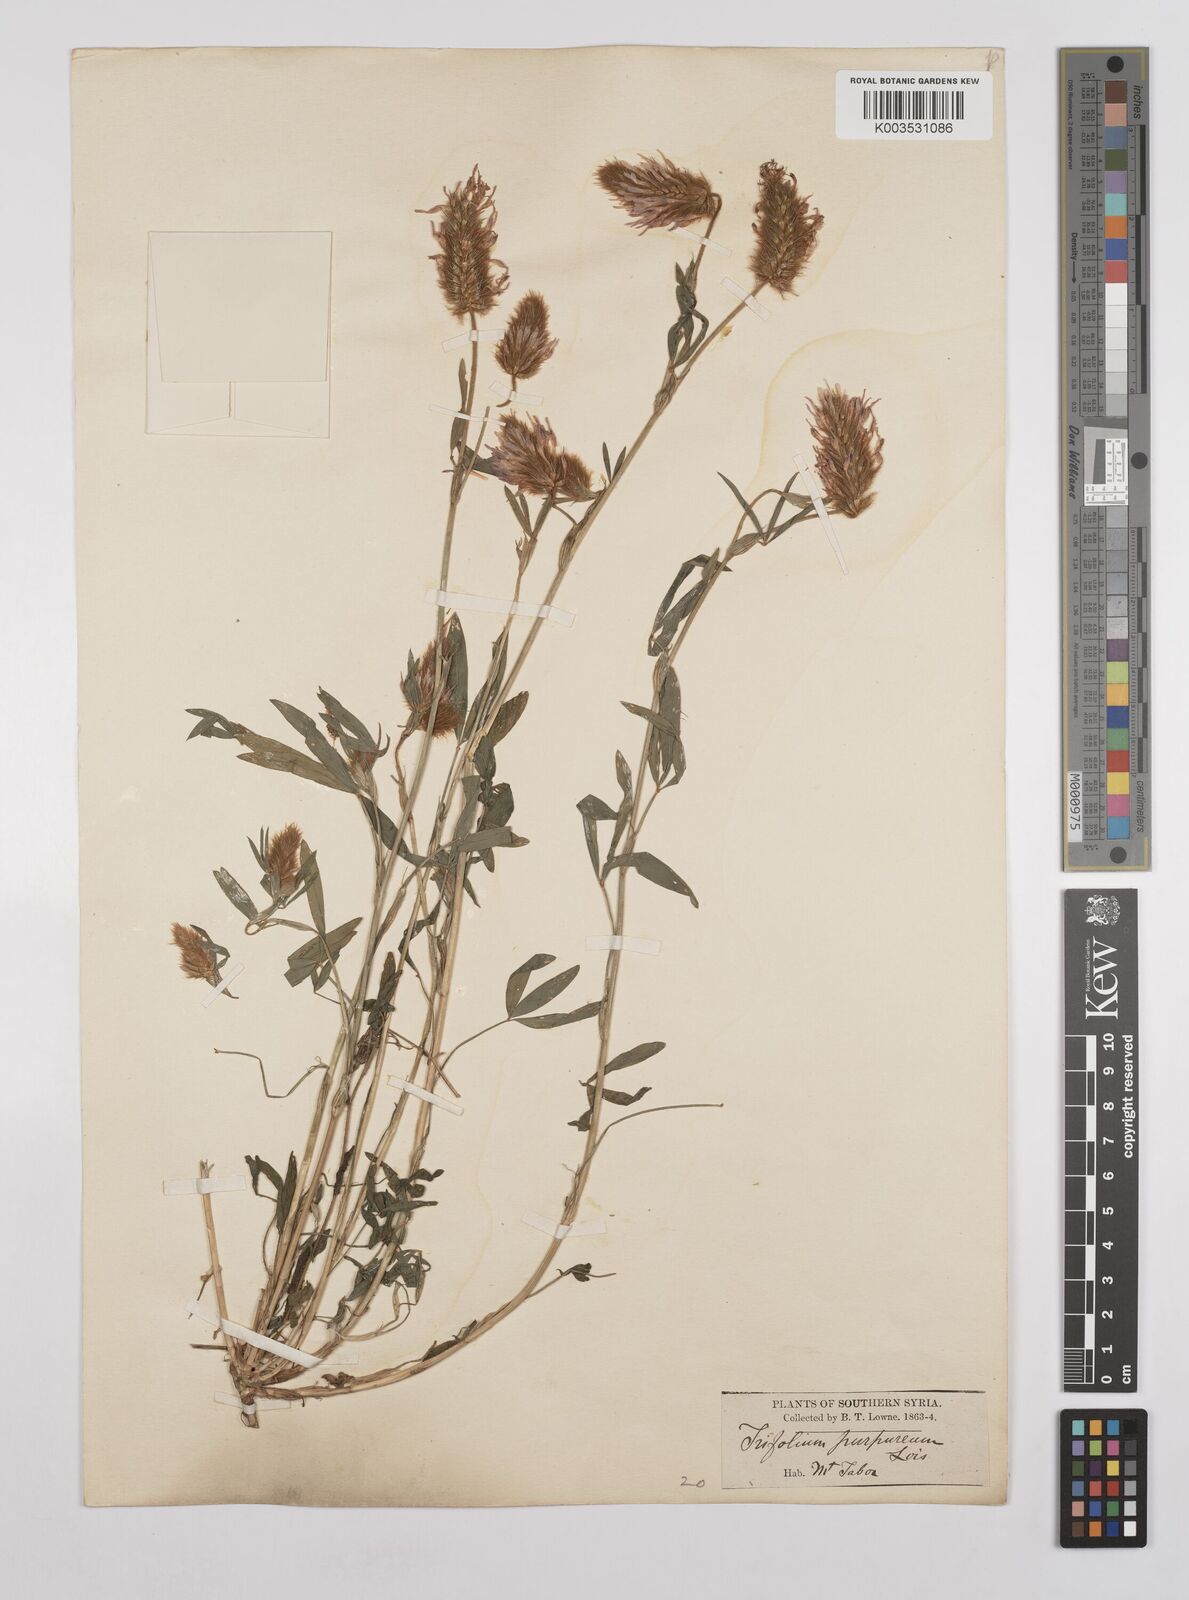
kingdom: Plantae
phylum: Tracheophyta
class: Magnoliopsida
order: Fabales
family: Fabaceae
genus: Trifolium
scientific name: Trifolium purpureum
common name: Purple clover
